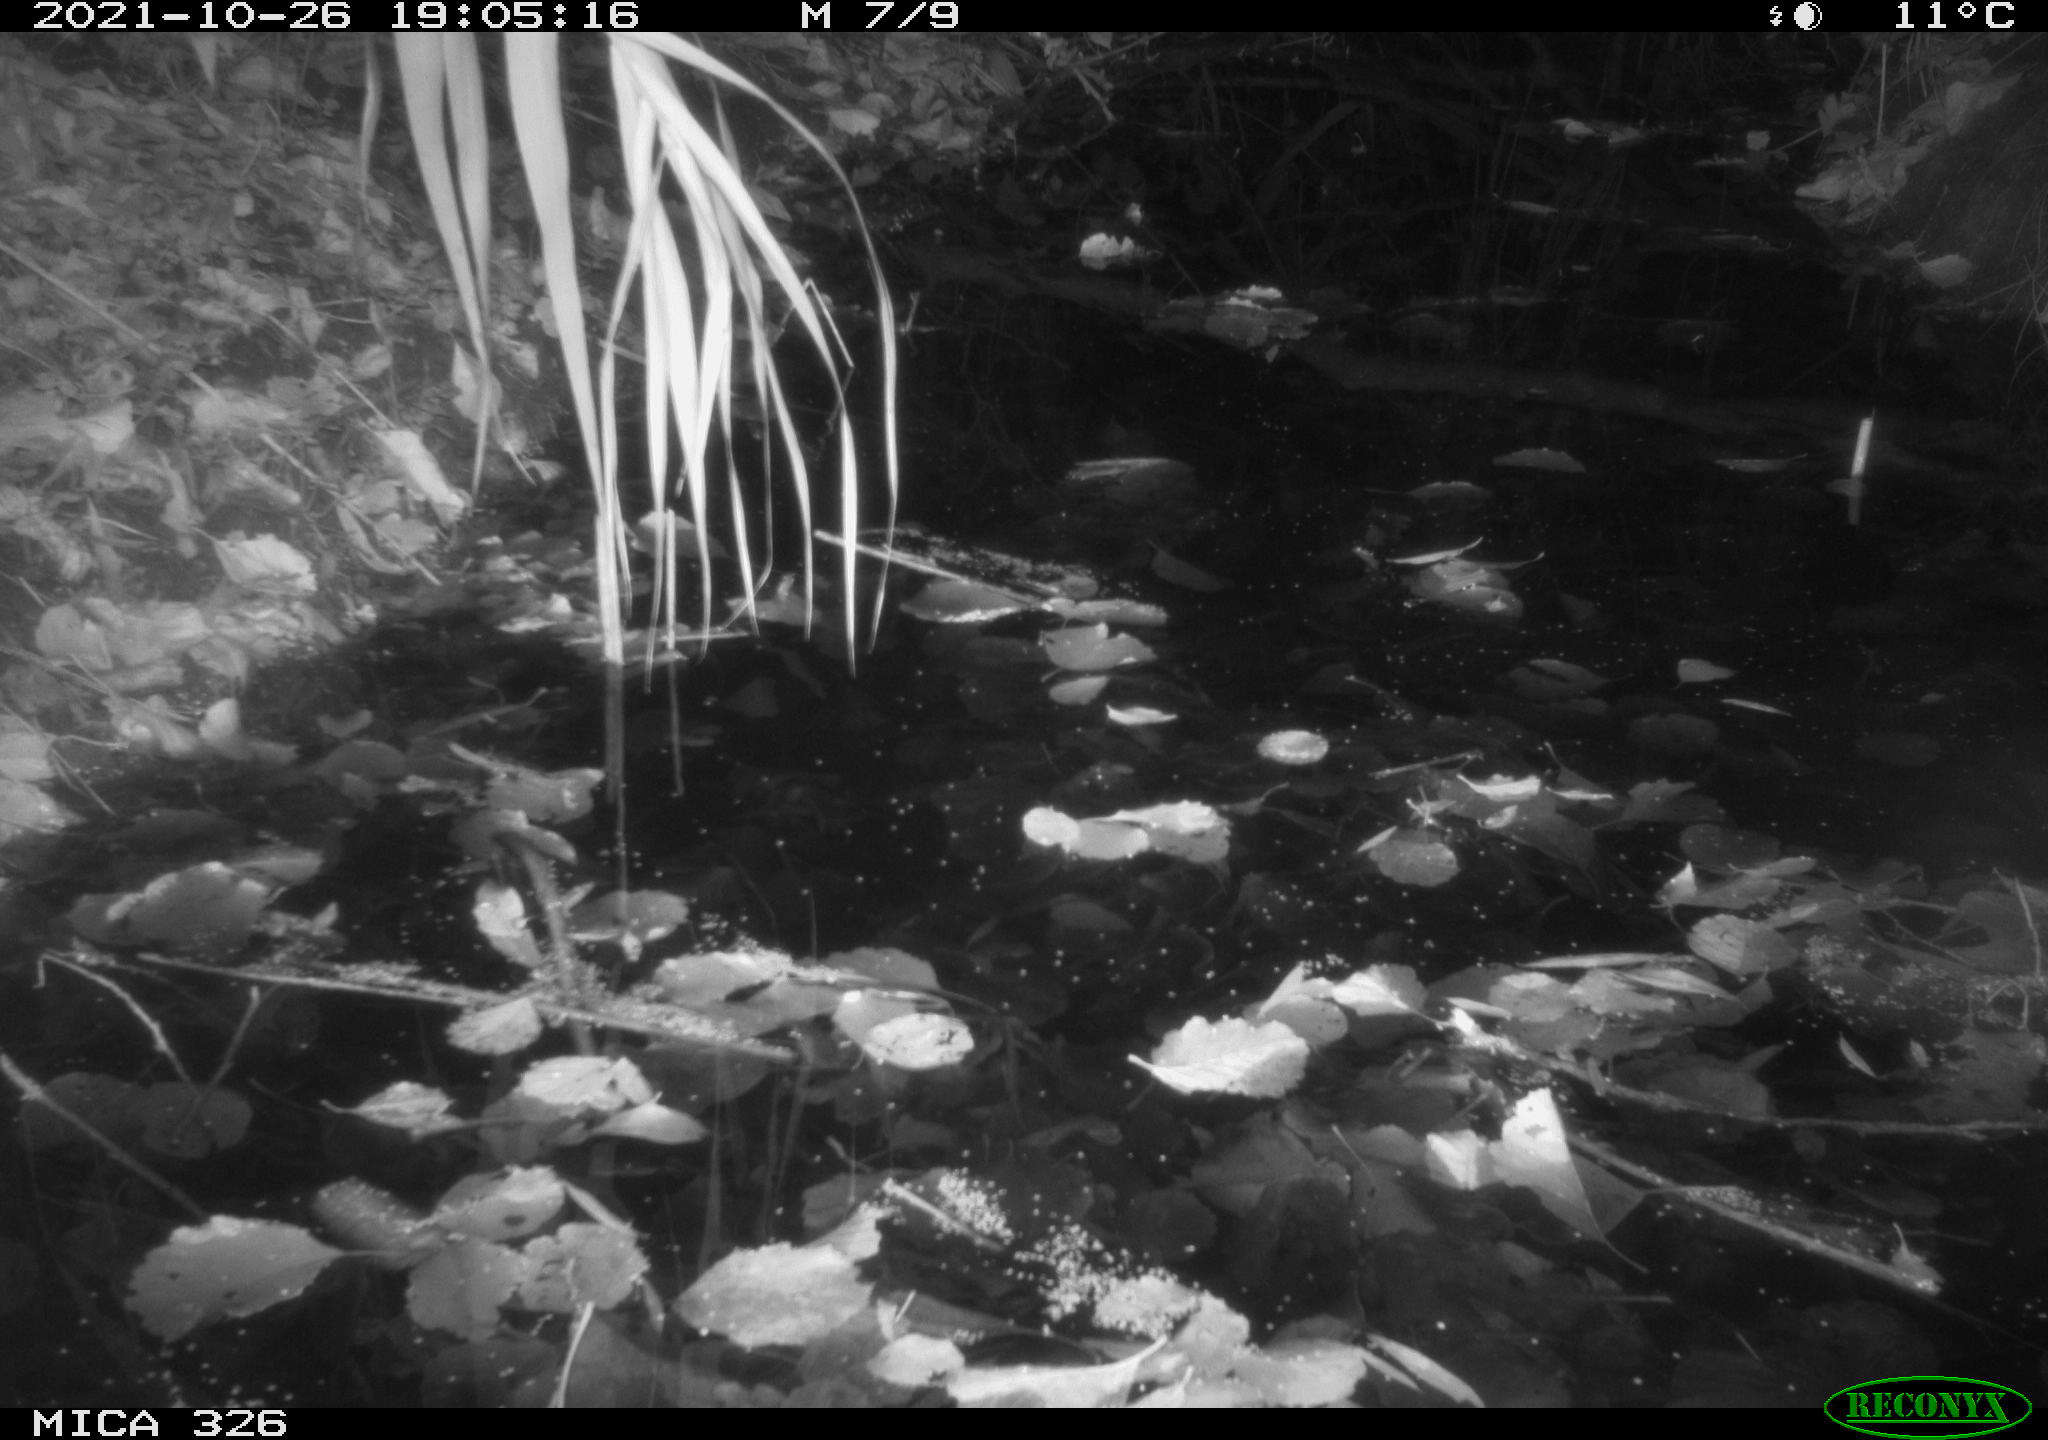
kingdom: Animalia
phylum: Chordata
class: Mammalia
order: Rodentia
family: Muridae
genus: Rattus
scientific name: Rattus norvegicus
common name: Brown rat
